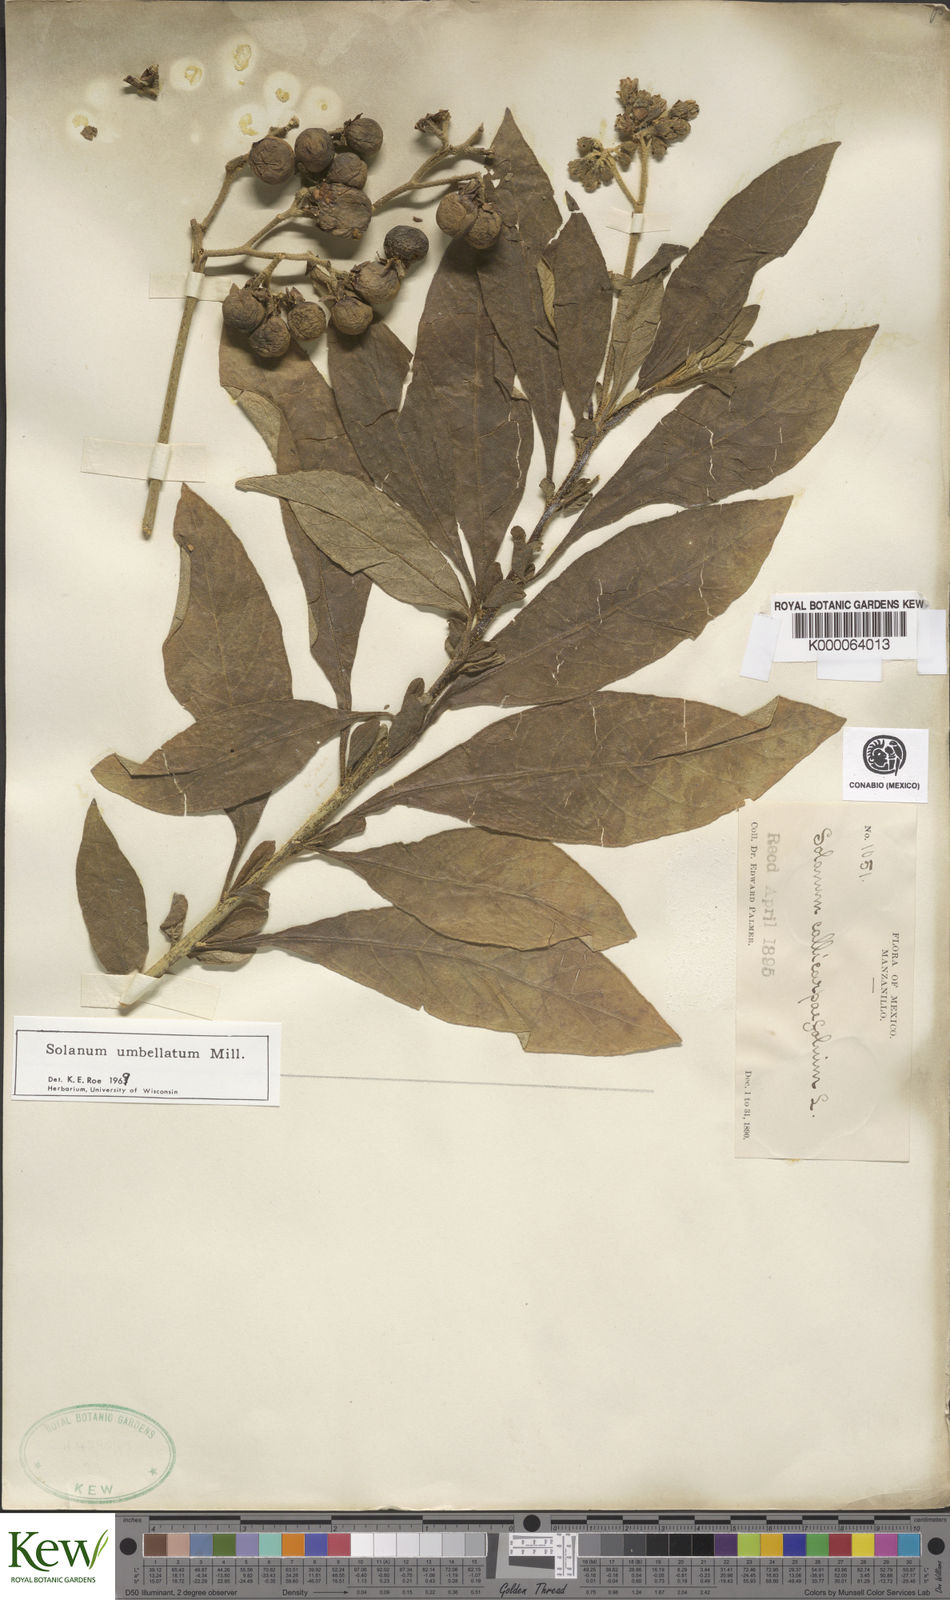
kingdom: Plantae
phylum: Tracheophyta
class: Magnoliopsida
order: Solanales
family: Solanaceae
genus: Solanum
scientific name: Solanum umbellatum
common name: Nightshade
